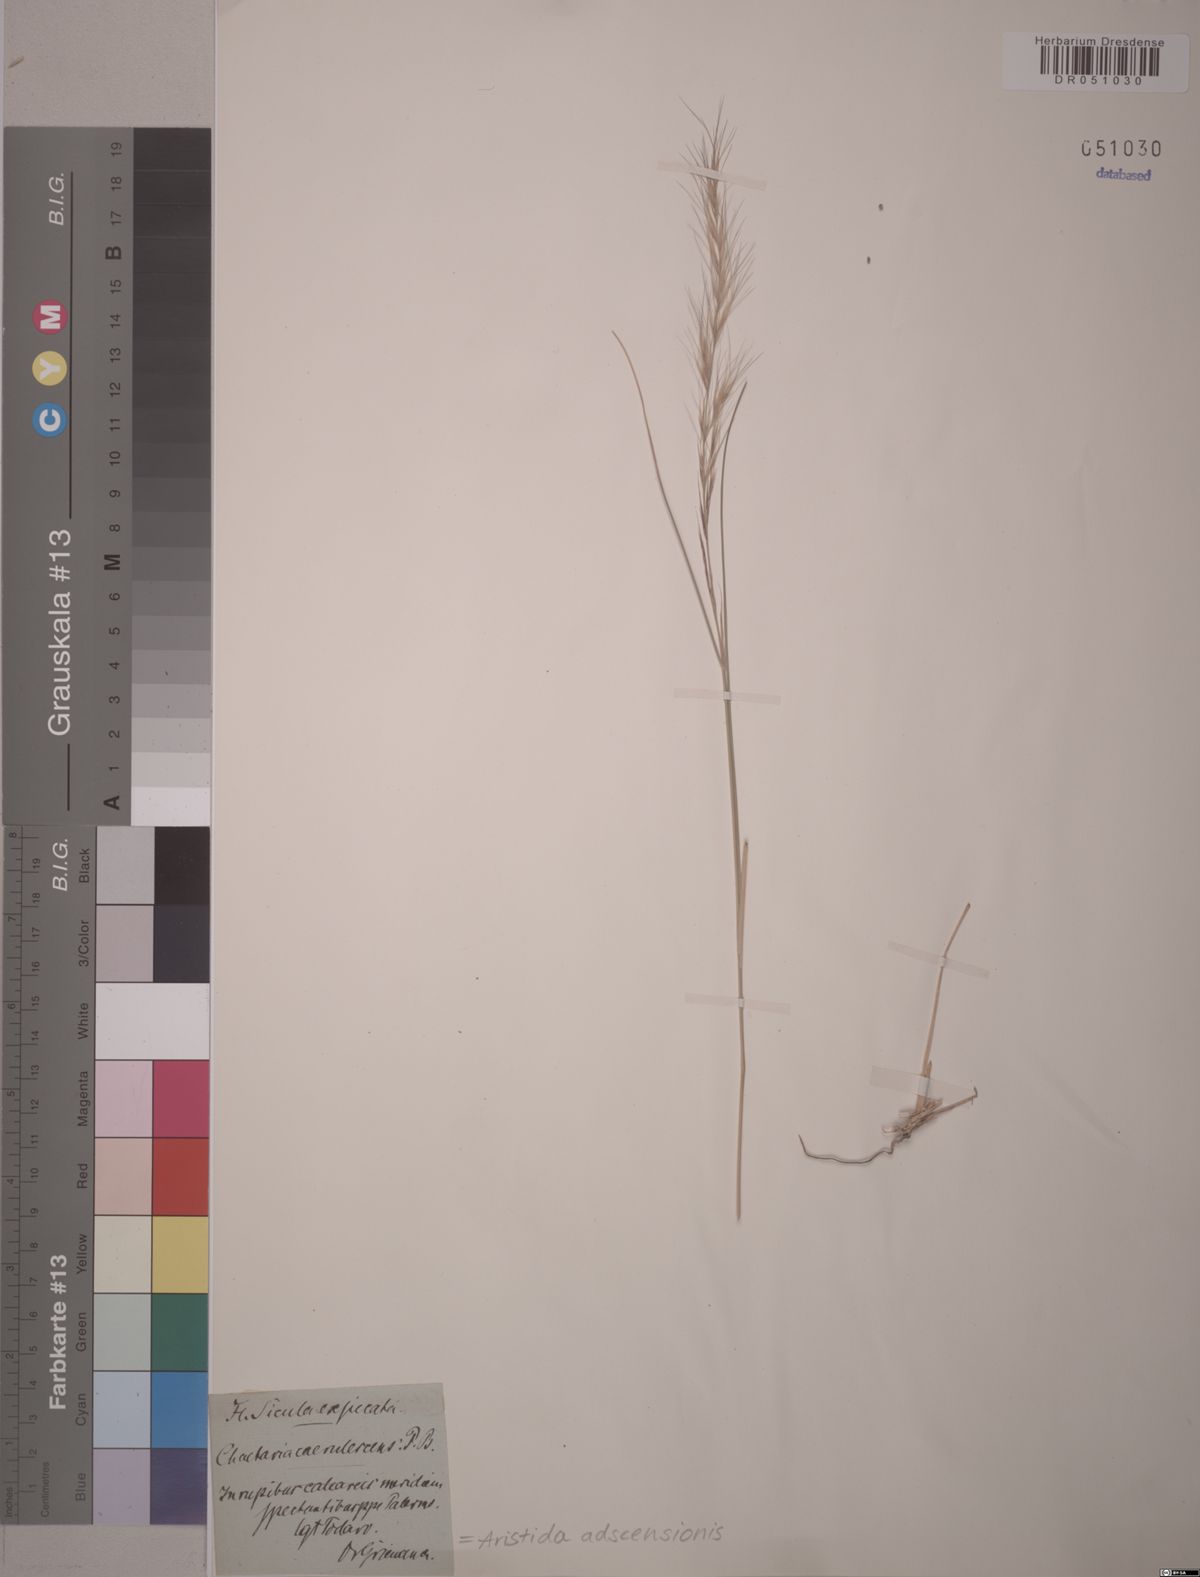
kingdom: Plantae
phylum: Tracheophyta
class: Liliopsida
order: Poales
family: Poaceae
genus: Aristida
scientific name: Aristida adscensionis
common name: Sixweeks threeawn
